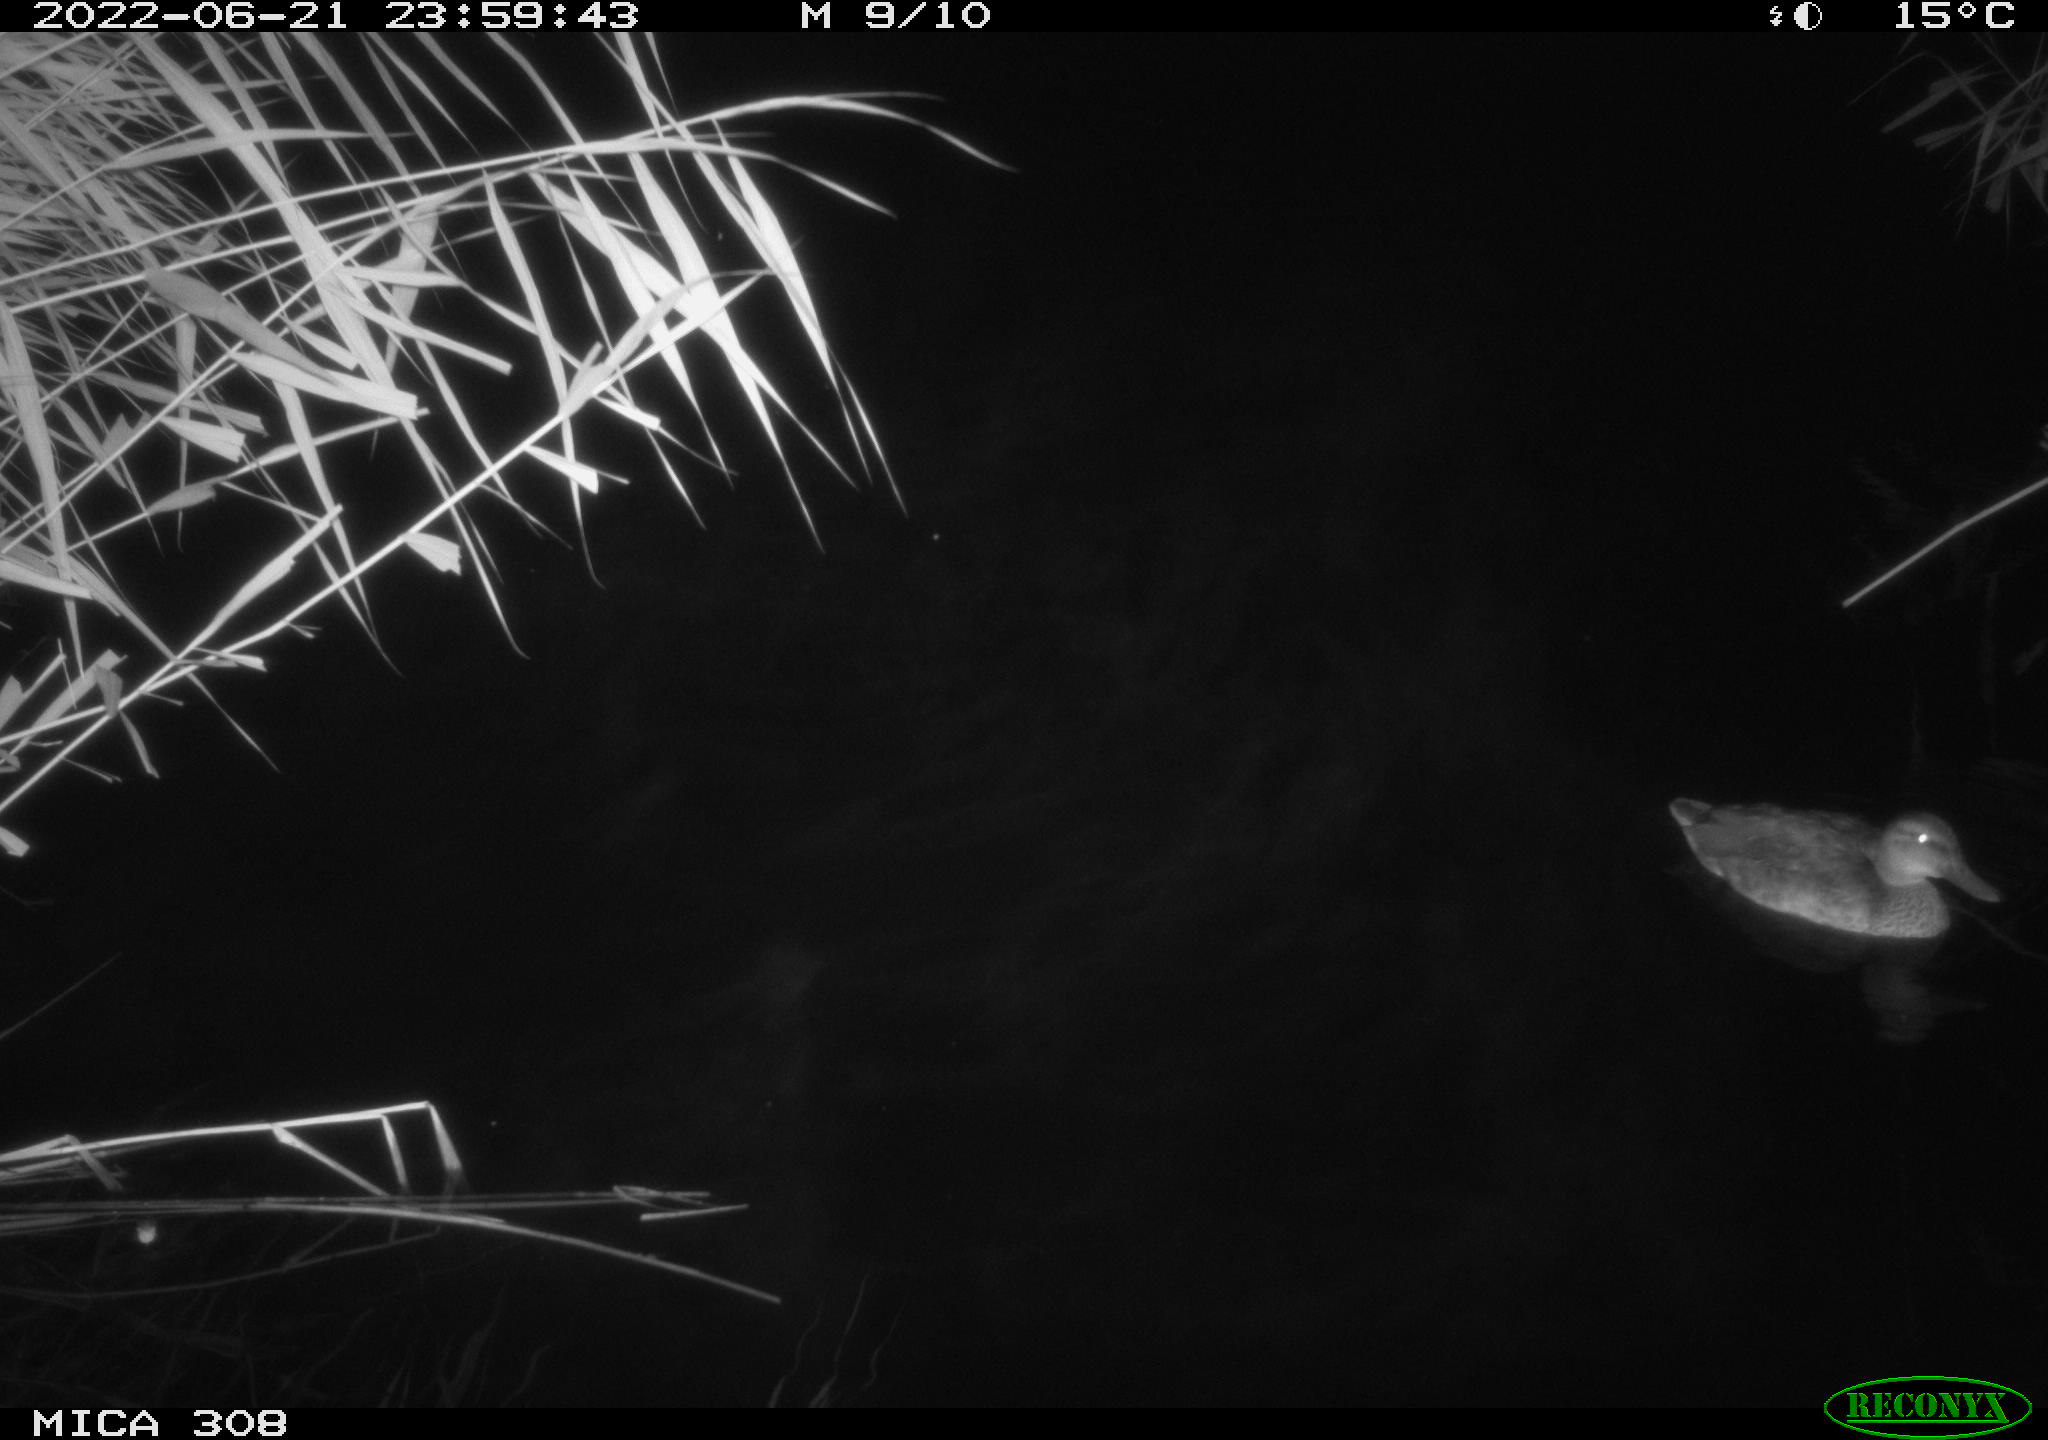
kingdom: Animalia
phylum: Chordata
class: Aves
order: Anseriformes
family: Anatidae
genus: Anas
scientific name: Anas platyrhynchos
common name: Mallard
